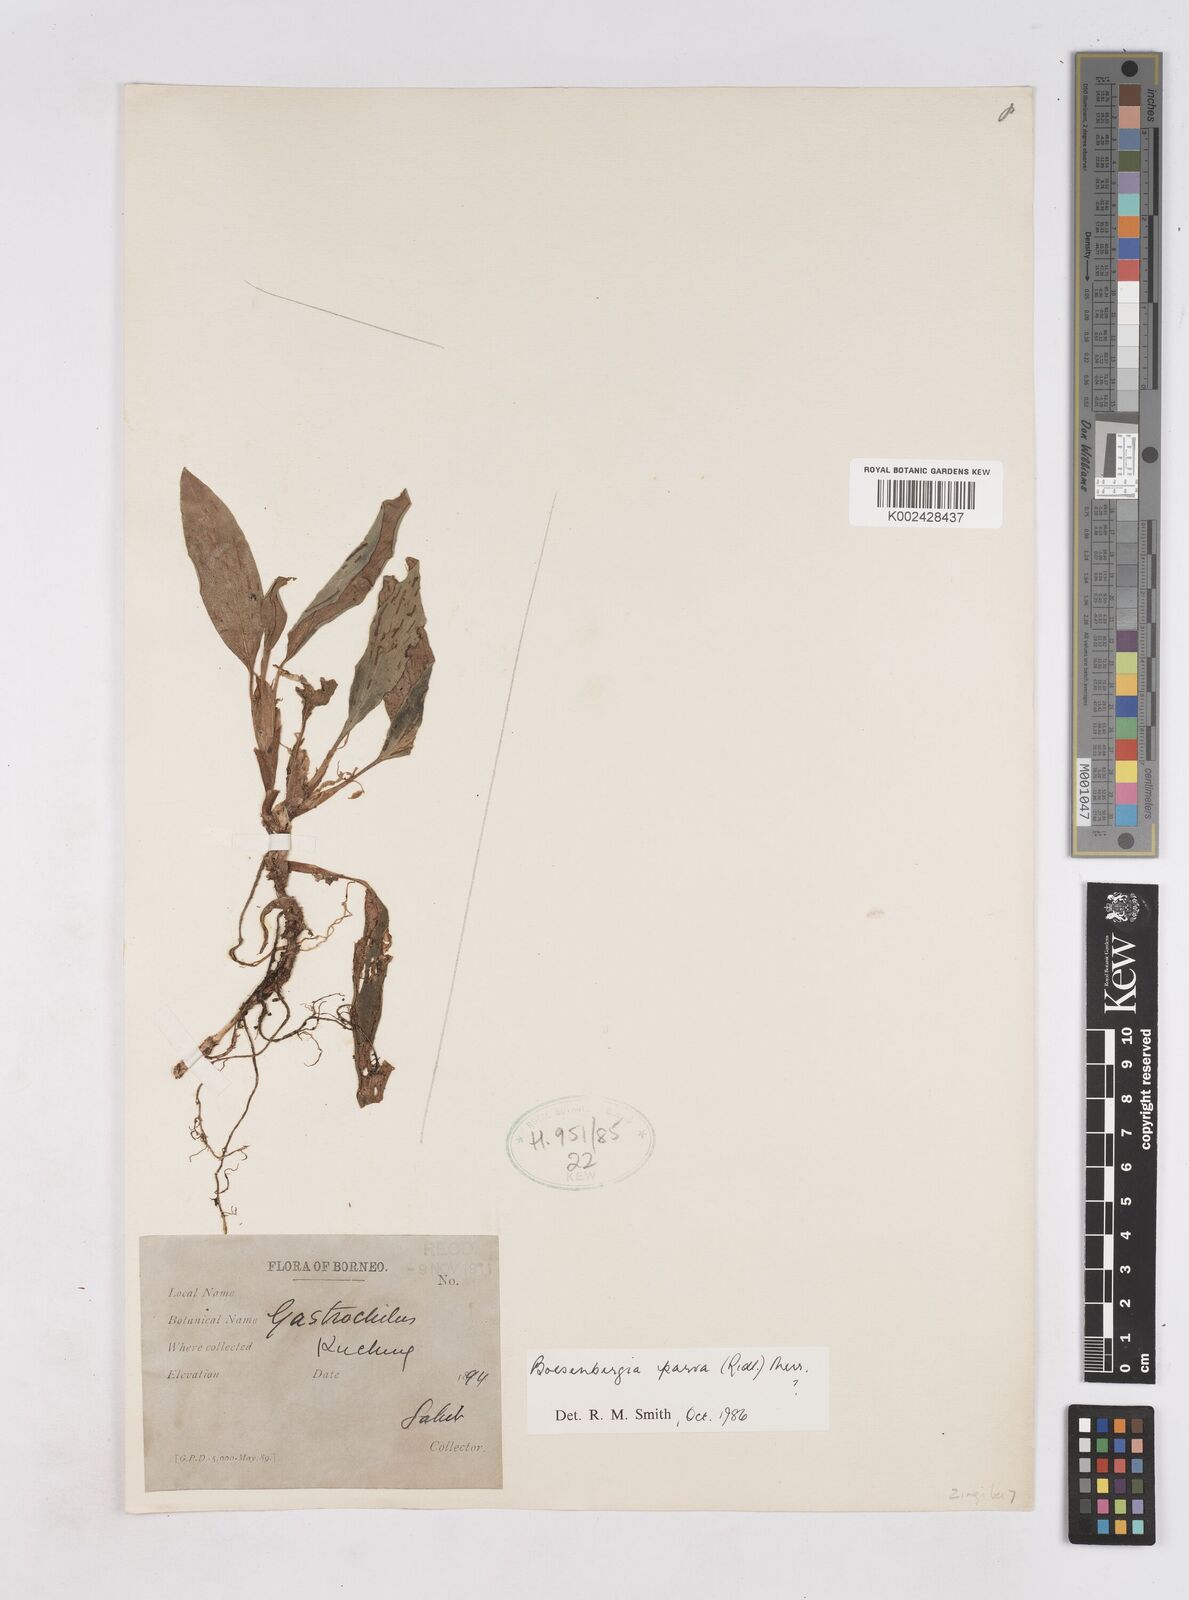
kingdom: Plantae
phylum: Tracheophyta
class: Liliopsida
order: Zingiberales
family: Zingiberaceae
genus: Boesenbergia
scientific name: Boesenbergia parva
